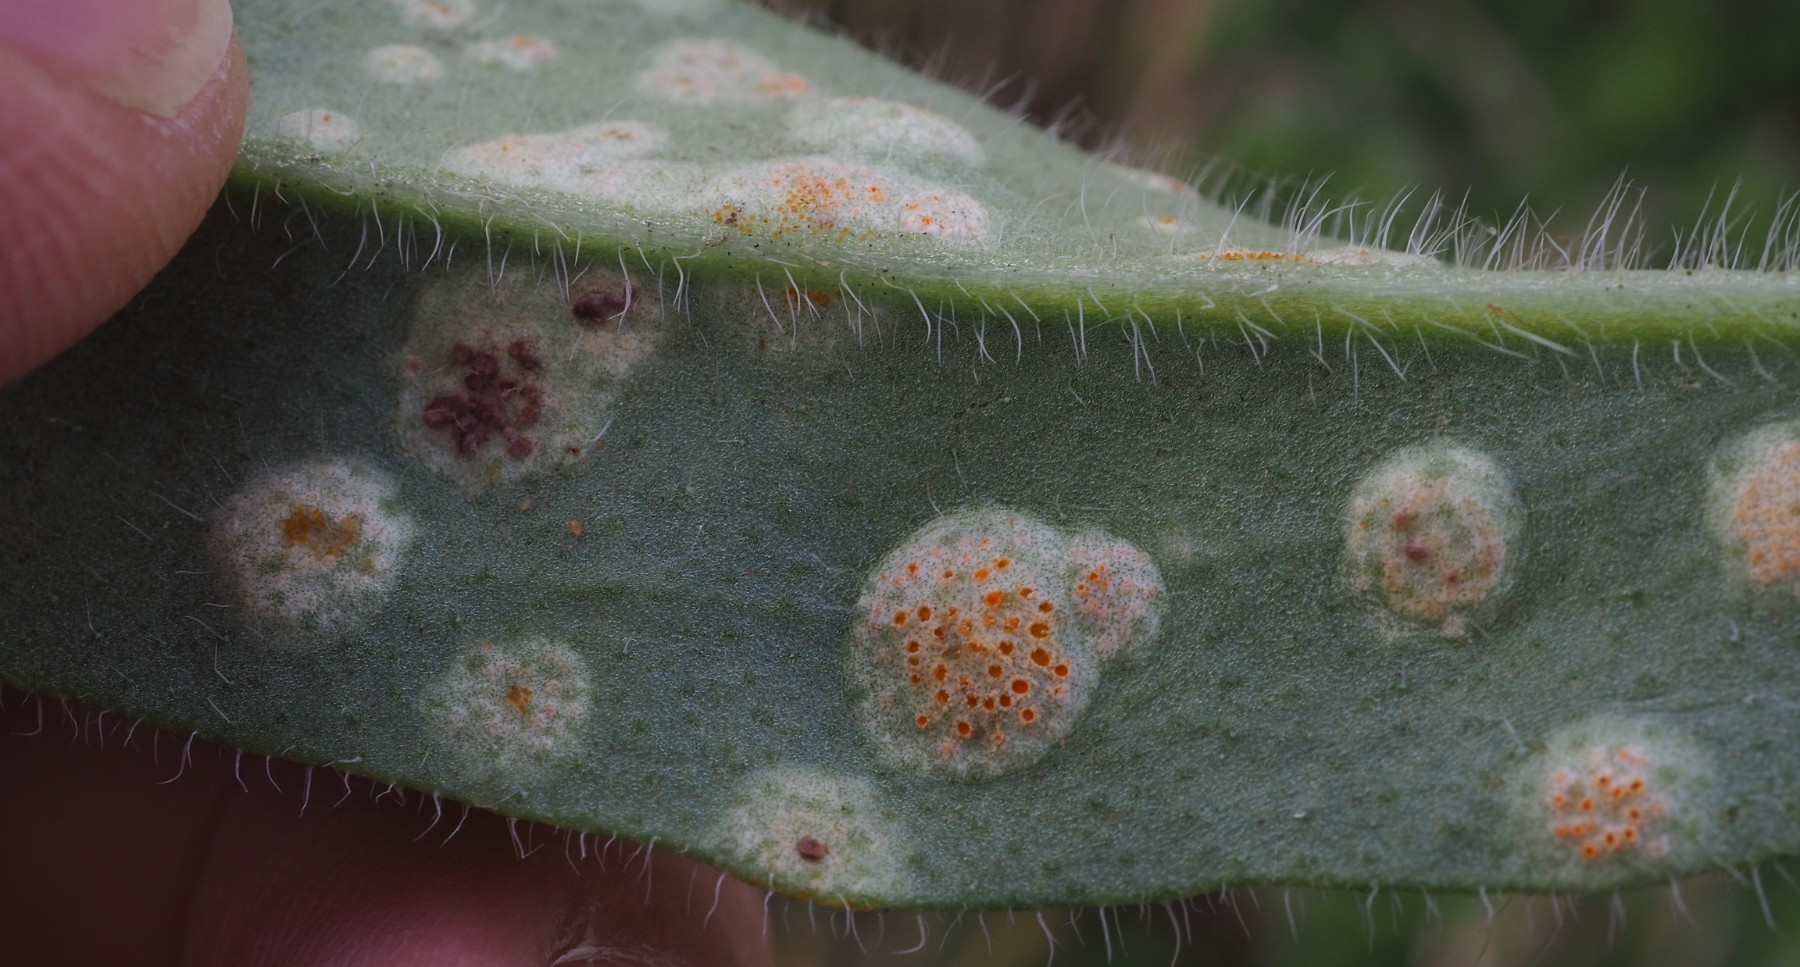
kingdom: Fungi
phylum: Basidiomycota
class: Pucciniomycetes
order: Pucciniales
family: Pucciniaceae
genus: Puccinia
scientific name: Puccinia recondita
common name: Brown rust of wheat
